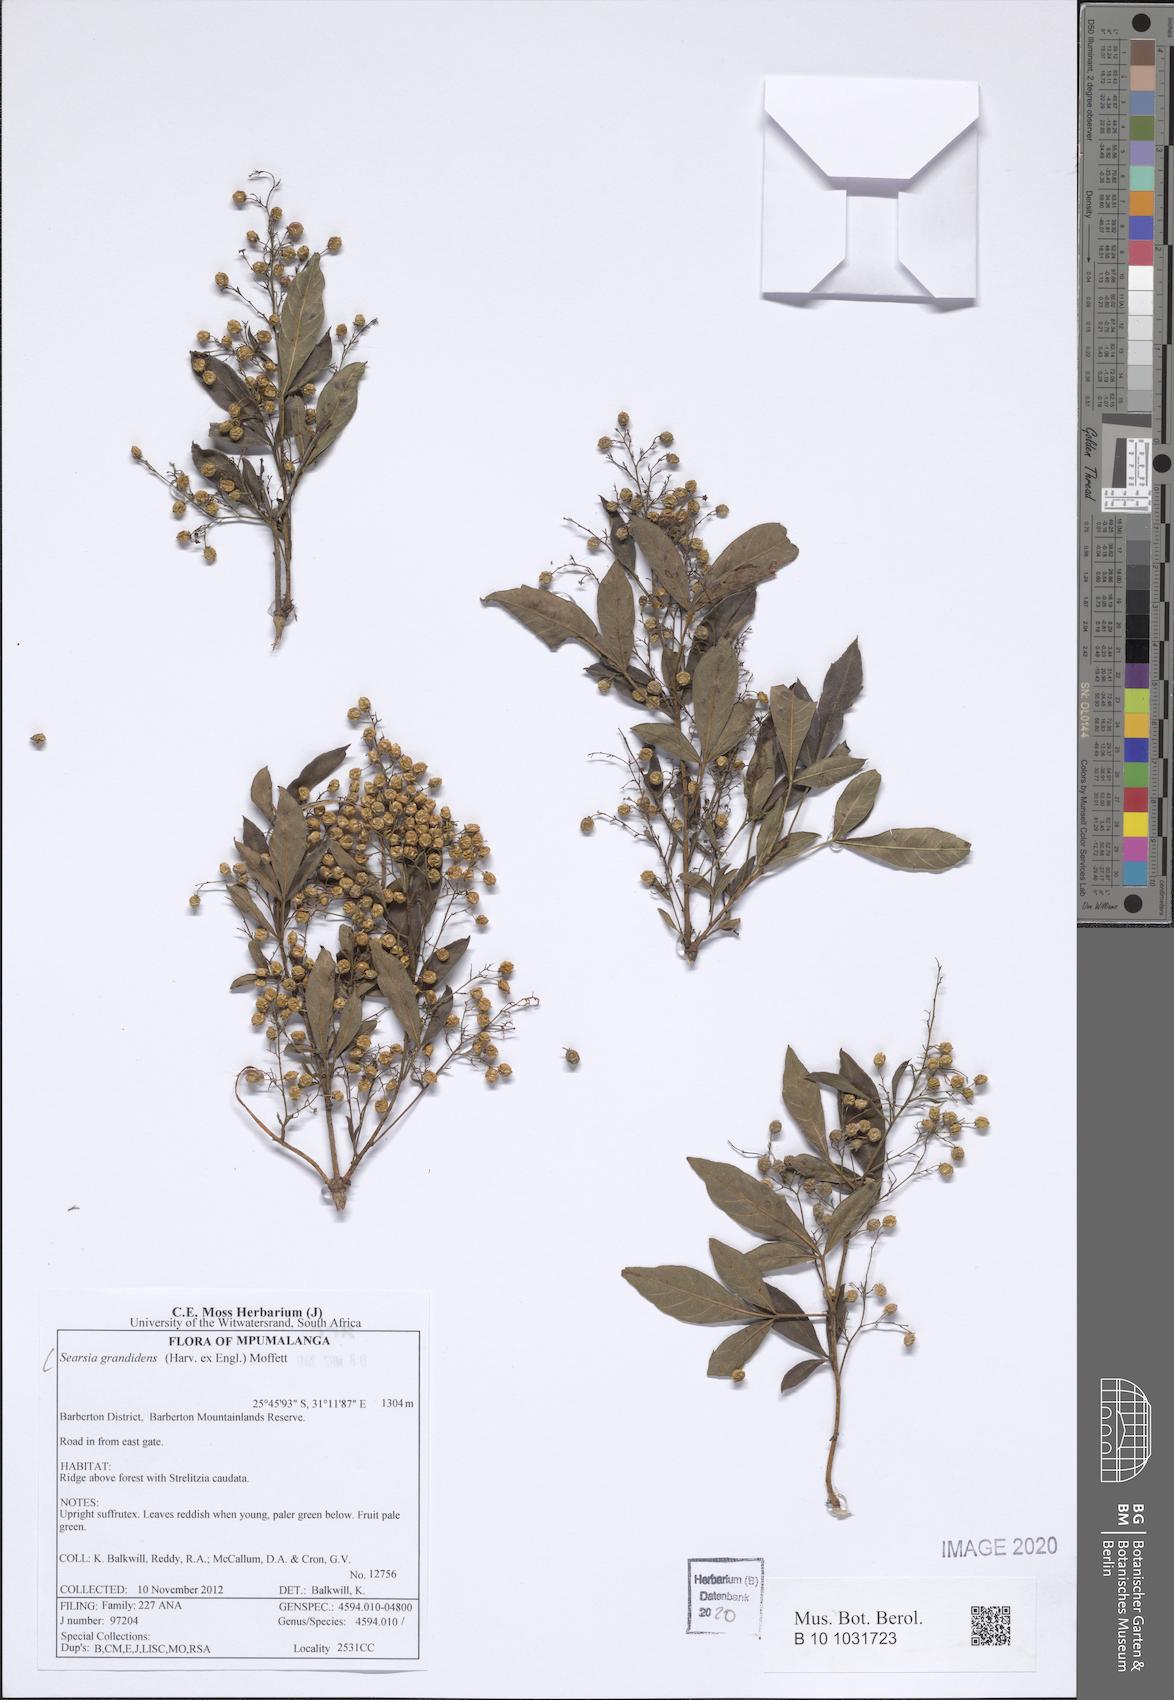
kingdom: Plantae
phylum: Tracheophyta
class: Magnoliopsida
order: Sapindales
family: Anacardiaceae
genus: Searsia
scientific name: Searsia grandidens
